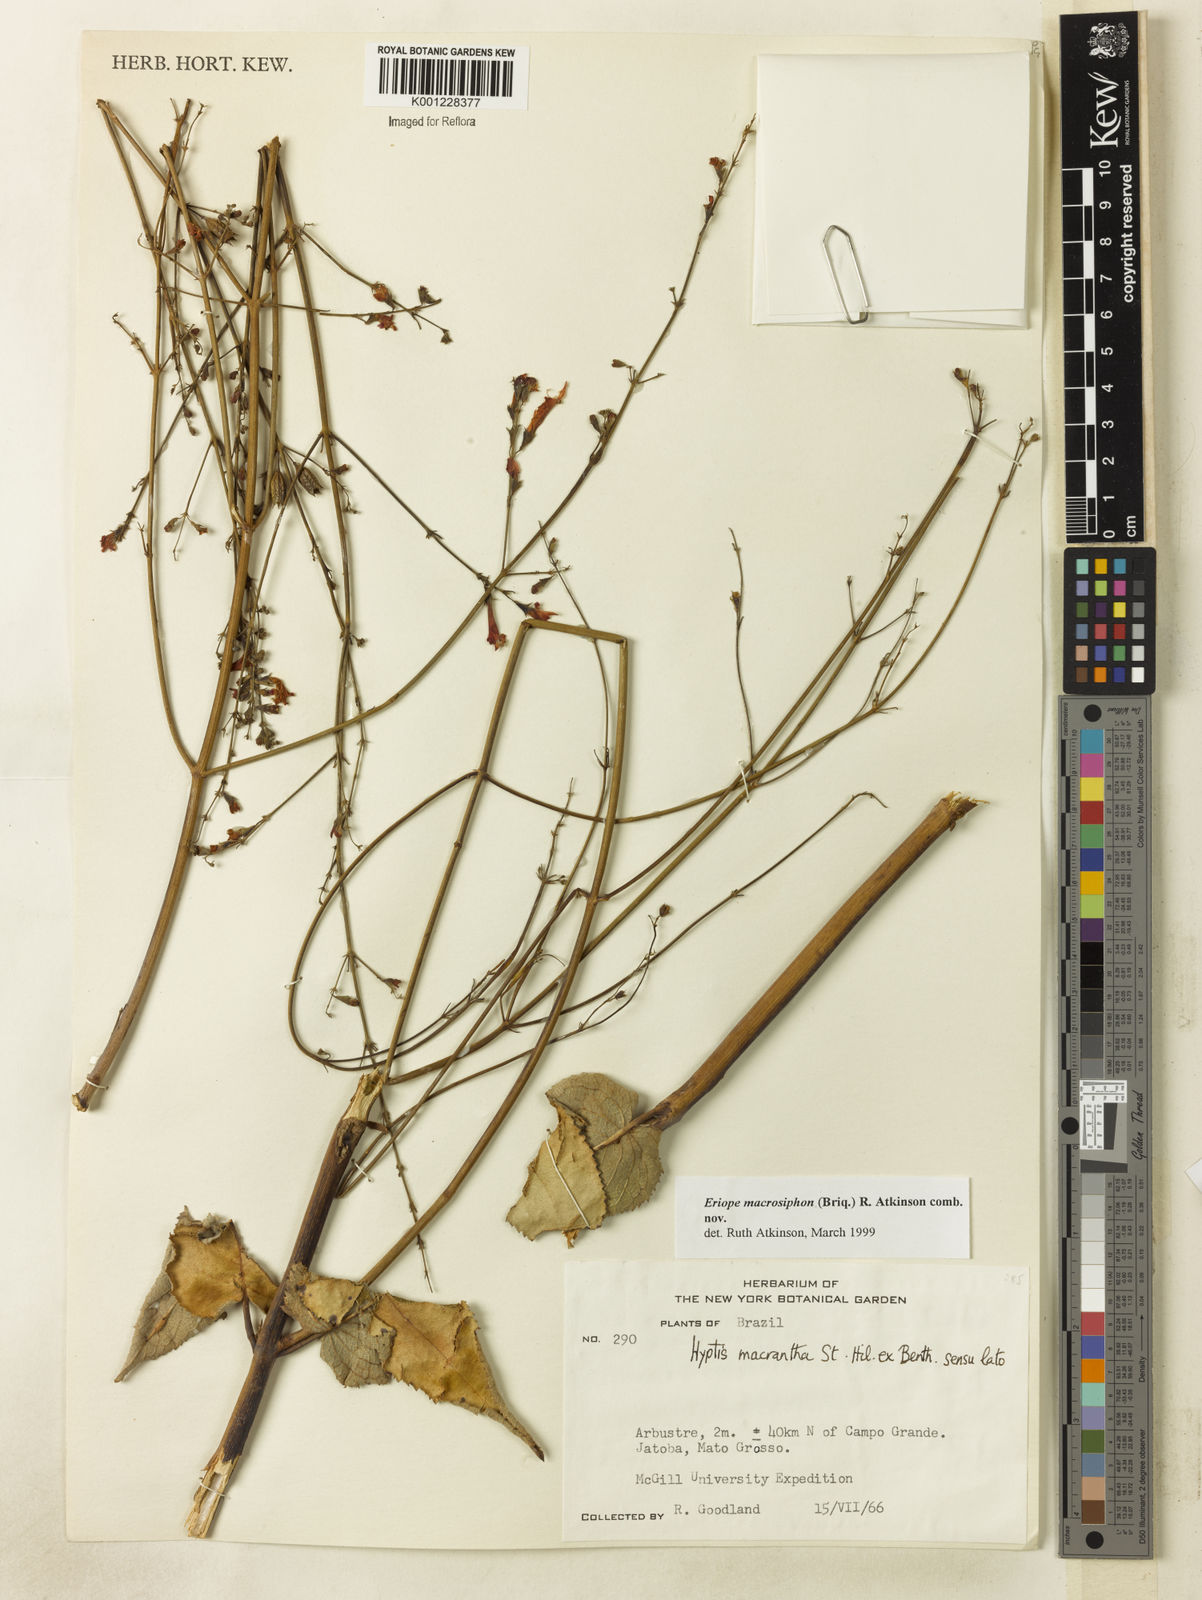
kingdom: Plantae
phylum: Tracheophyta
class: Magnoliopsida
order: Lamiales
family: Lamiaceae
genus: Hypenia
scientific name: Hypenia macrosiphon
